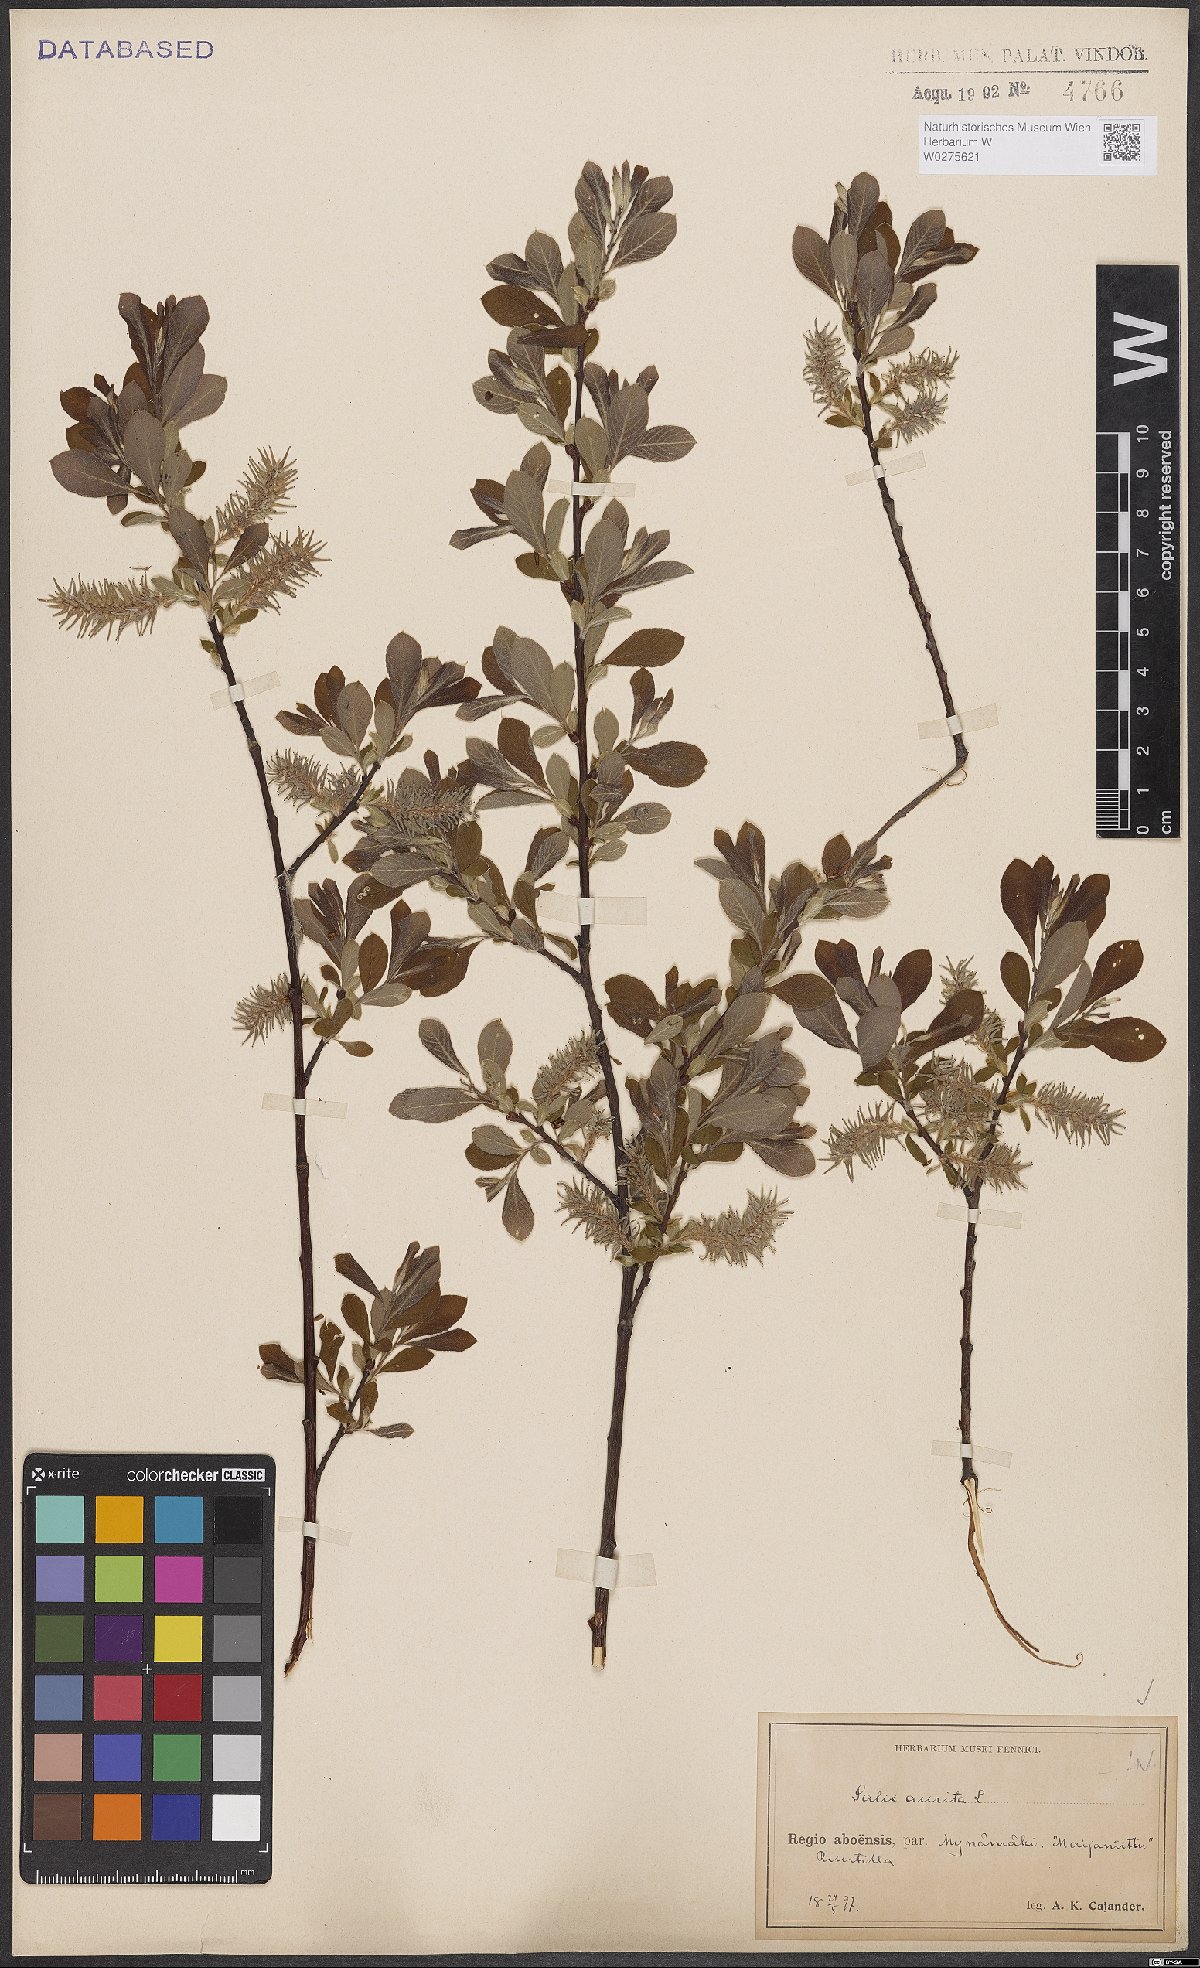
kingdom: Plantae
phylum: Tracheophyta
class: Magnoliopsida
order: Malpighiales
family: Salicaceae
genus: Salix
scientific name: Salix aurita
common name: Eared willow
